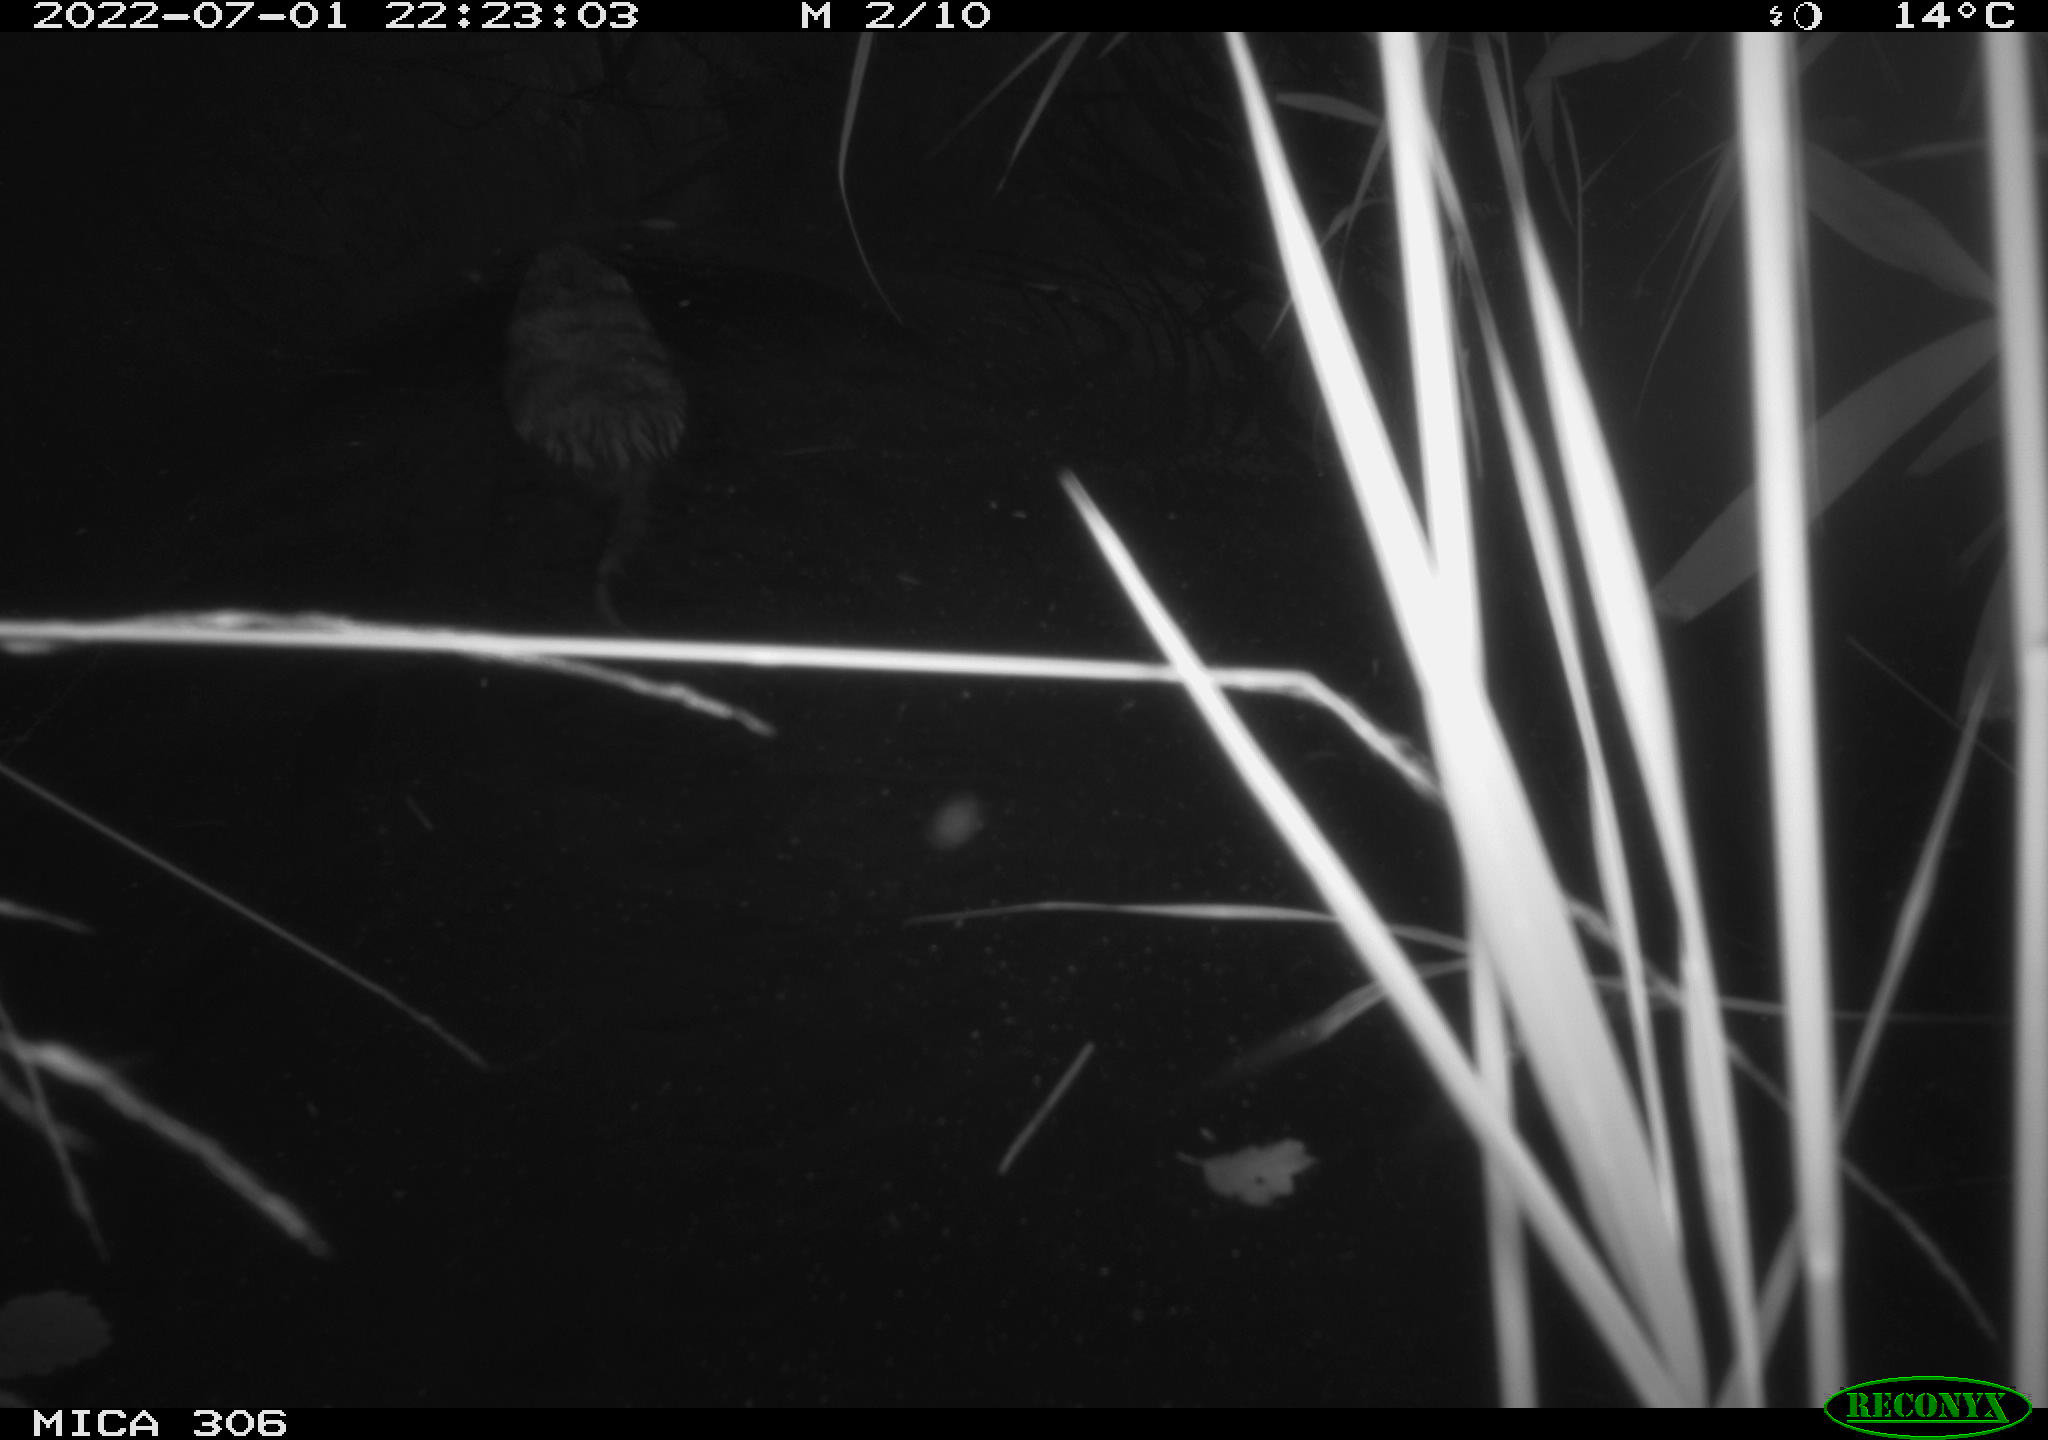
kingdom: Animalia
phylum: Chordata
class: Mammalia
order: Rodentia
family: Cricetidae
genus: Ondatra
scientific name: Ondatra zibethicus
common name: Muskrat
